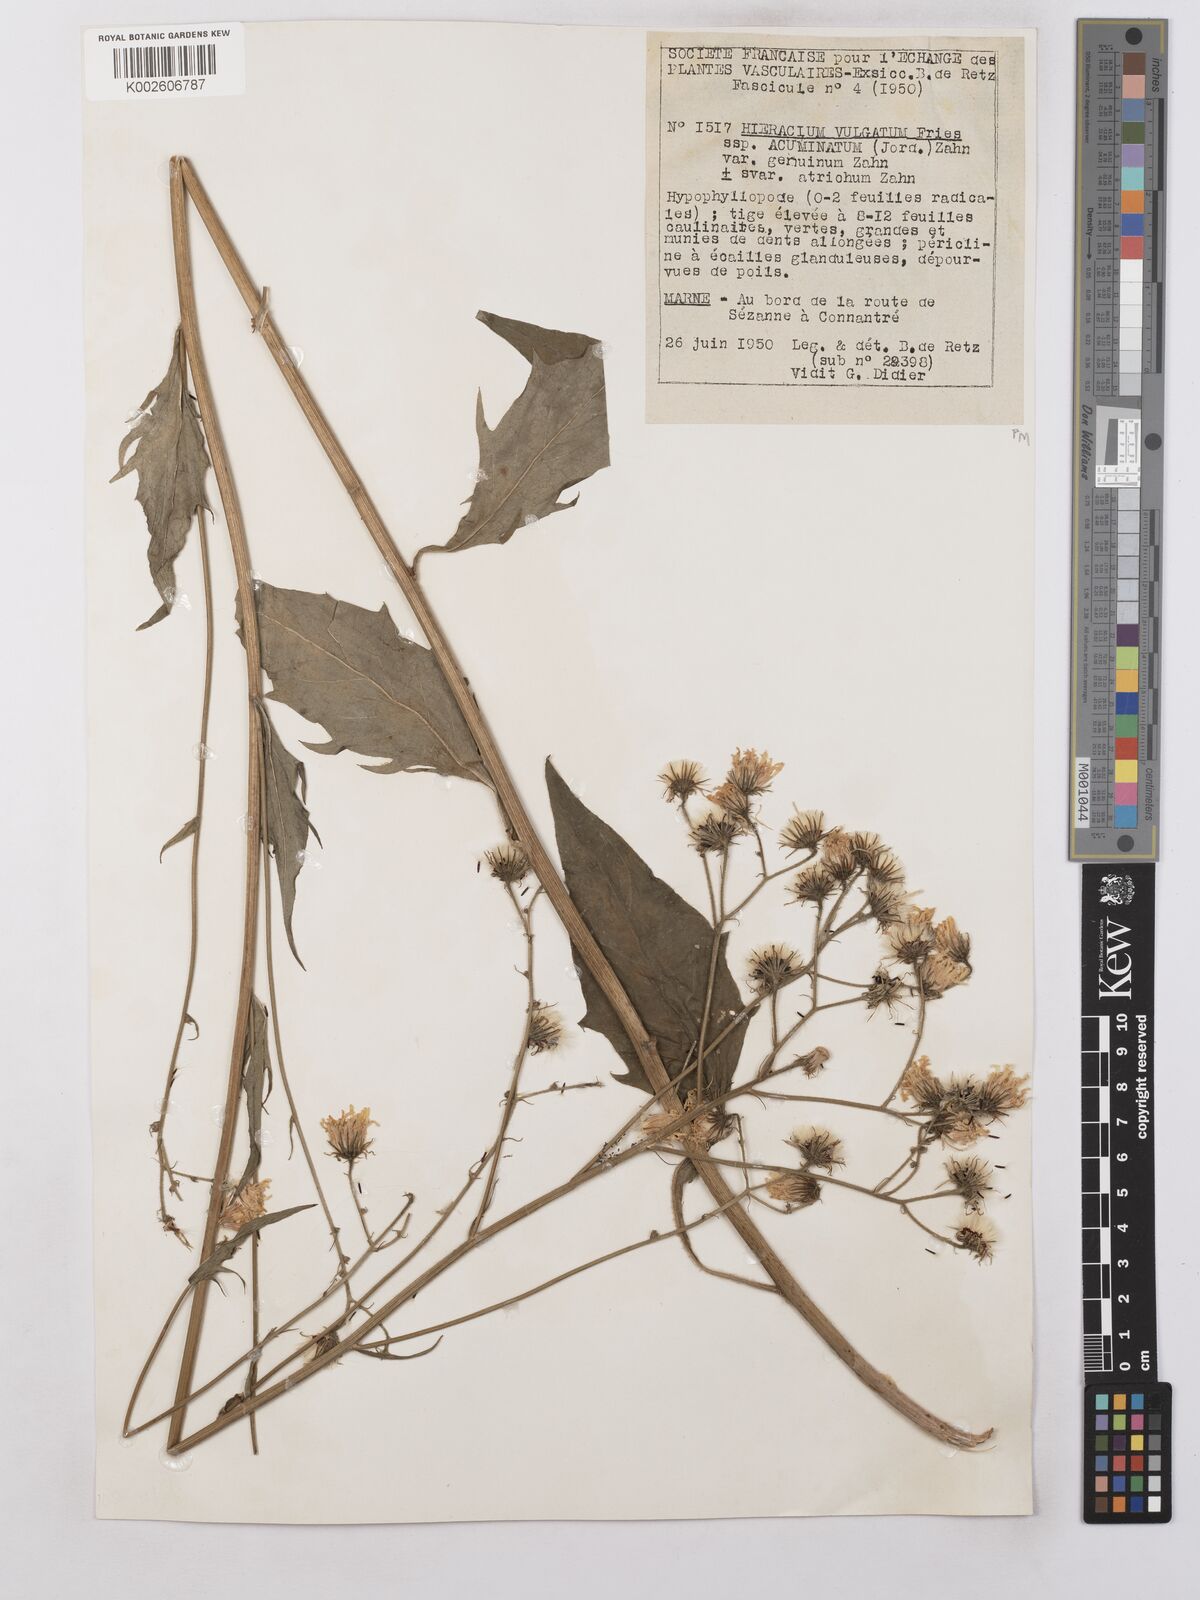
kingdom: Plantae
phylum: Tracheophyta
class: Magnoliopsida
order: Asterales
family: Asteraceae
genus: Hieracium
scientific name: Hieracium lachenalii
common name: Common hawkweed
